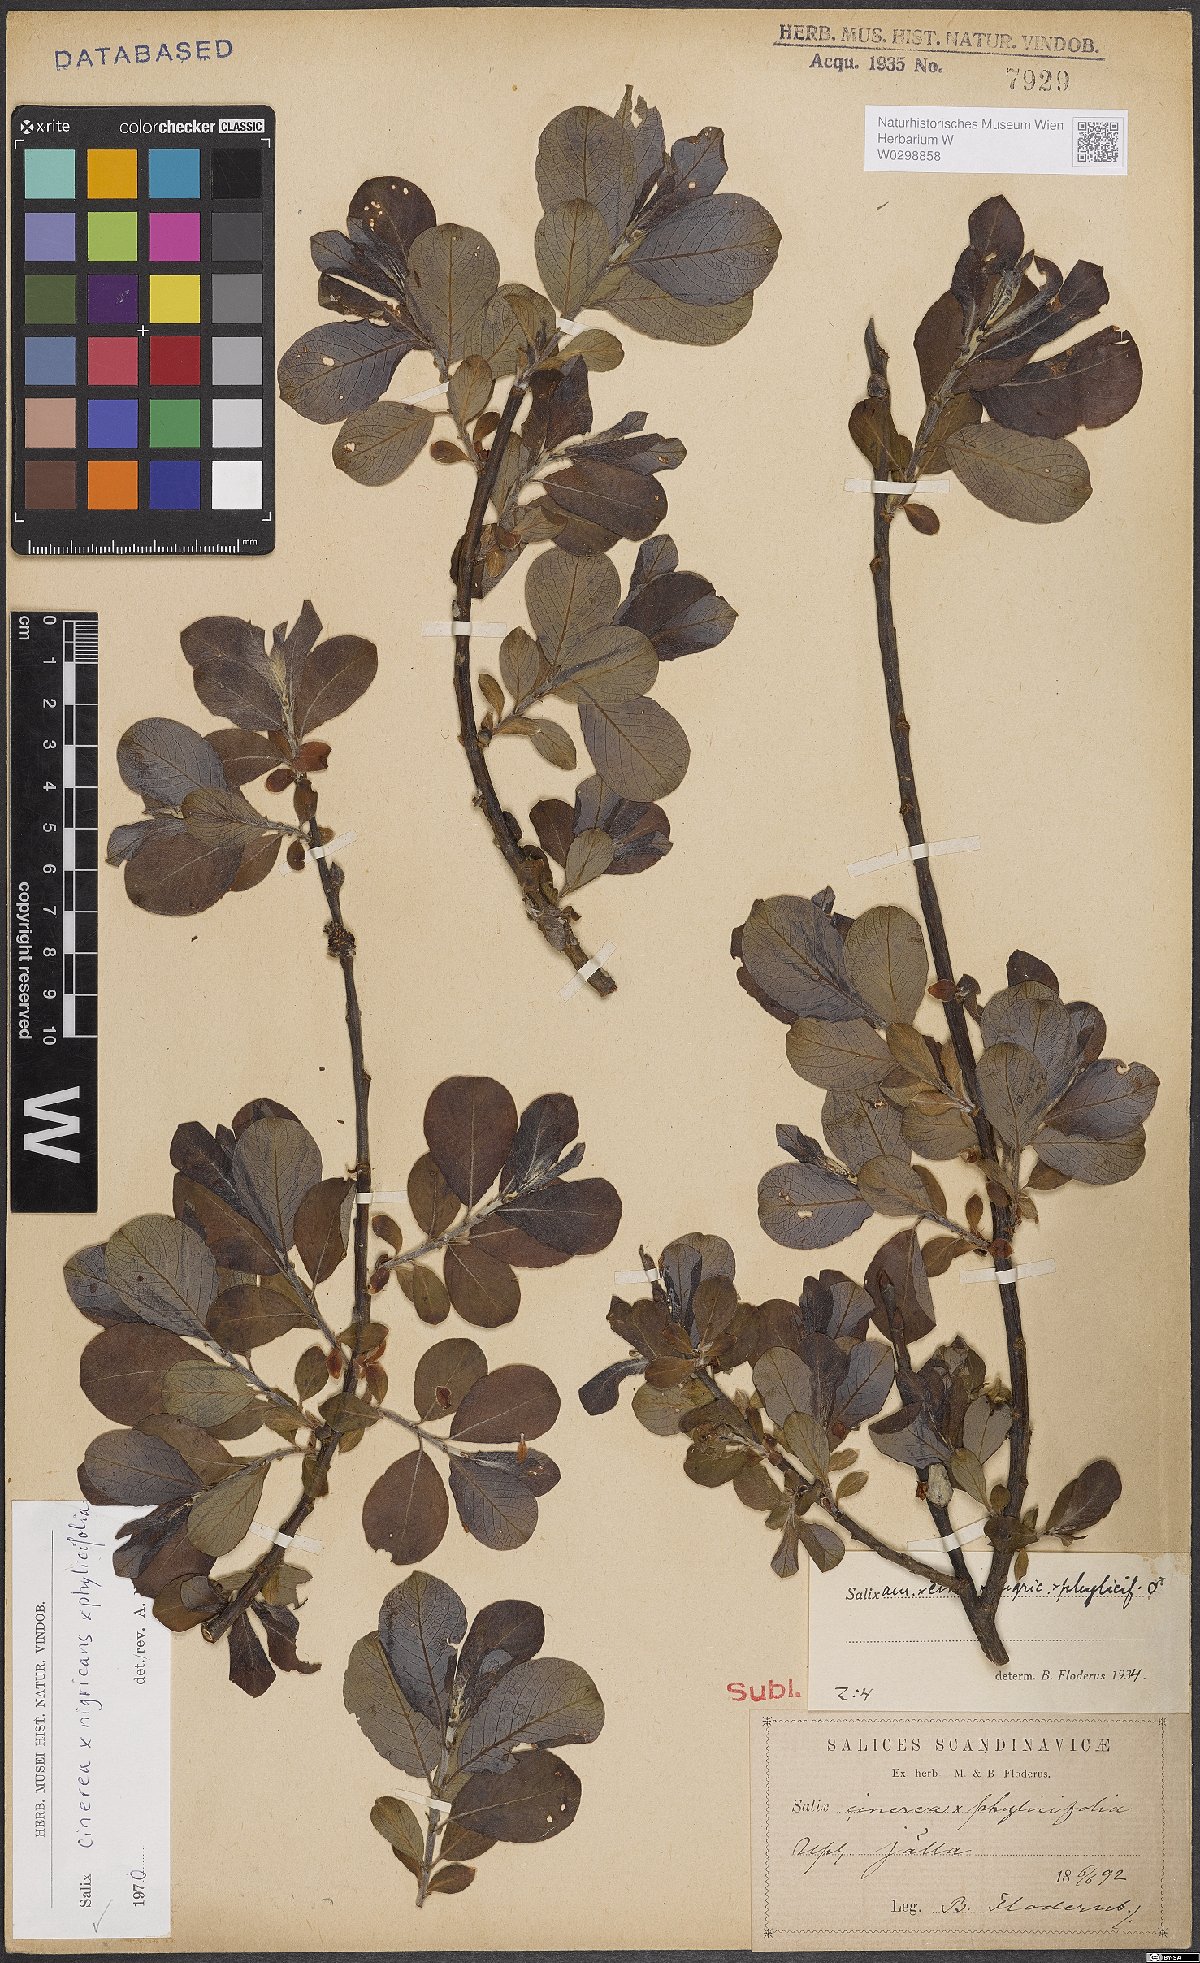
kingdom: Plantae
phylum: Tracheophyta
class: Magnoliopsida
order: Malpighiales
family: Salicaceae
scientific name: Salicaceae
